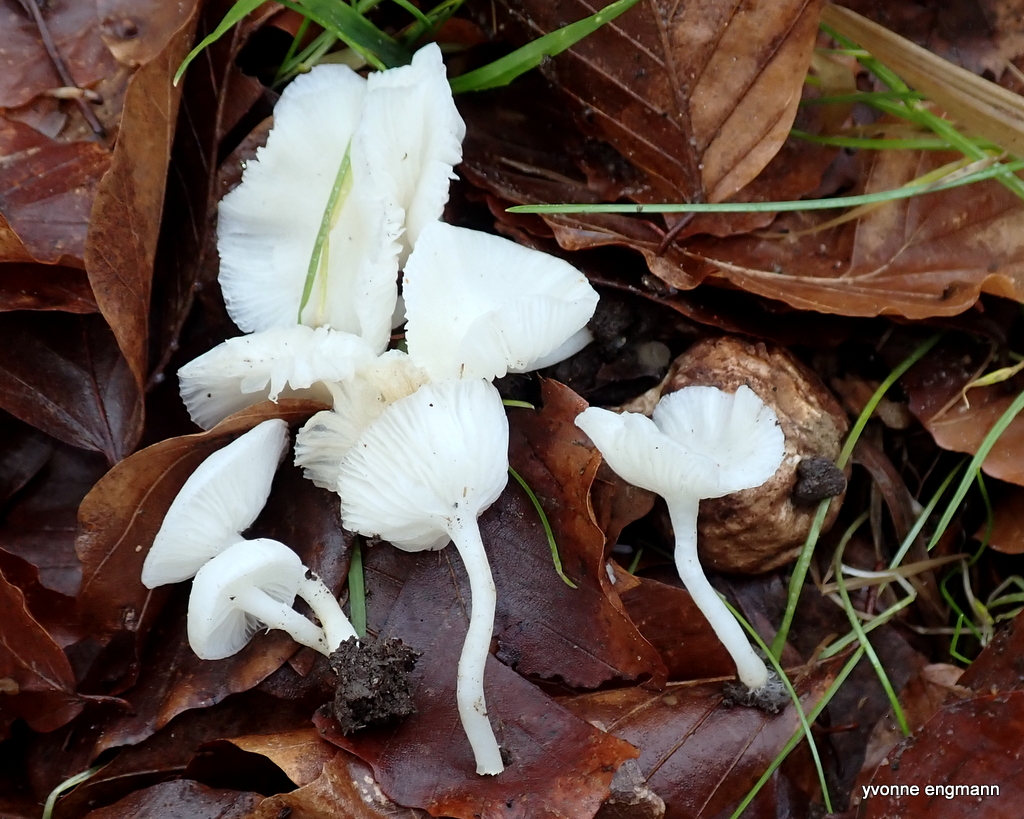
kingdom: Fungi
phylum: Basidiomycota
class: Agaricomycetes
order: Agaricales
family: Tubariaceae
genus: Tubaria
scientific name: Tubaria furfuracea
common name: kliddet fnughat
